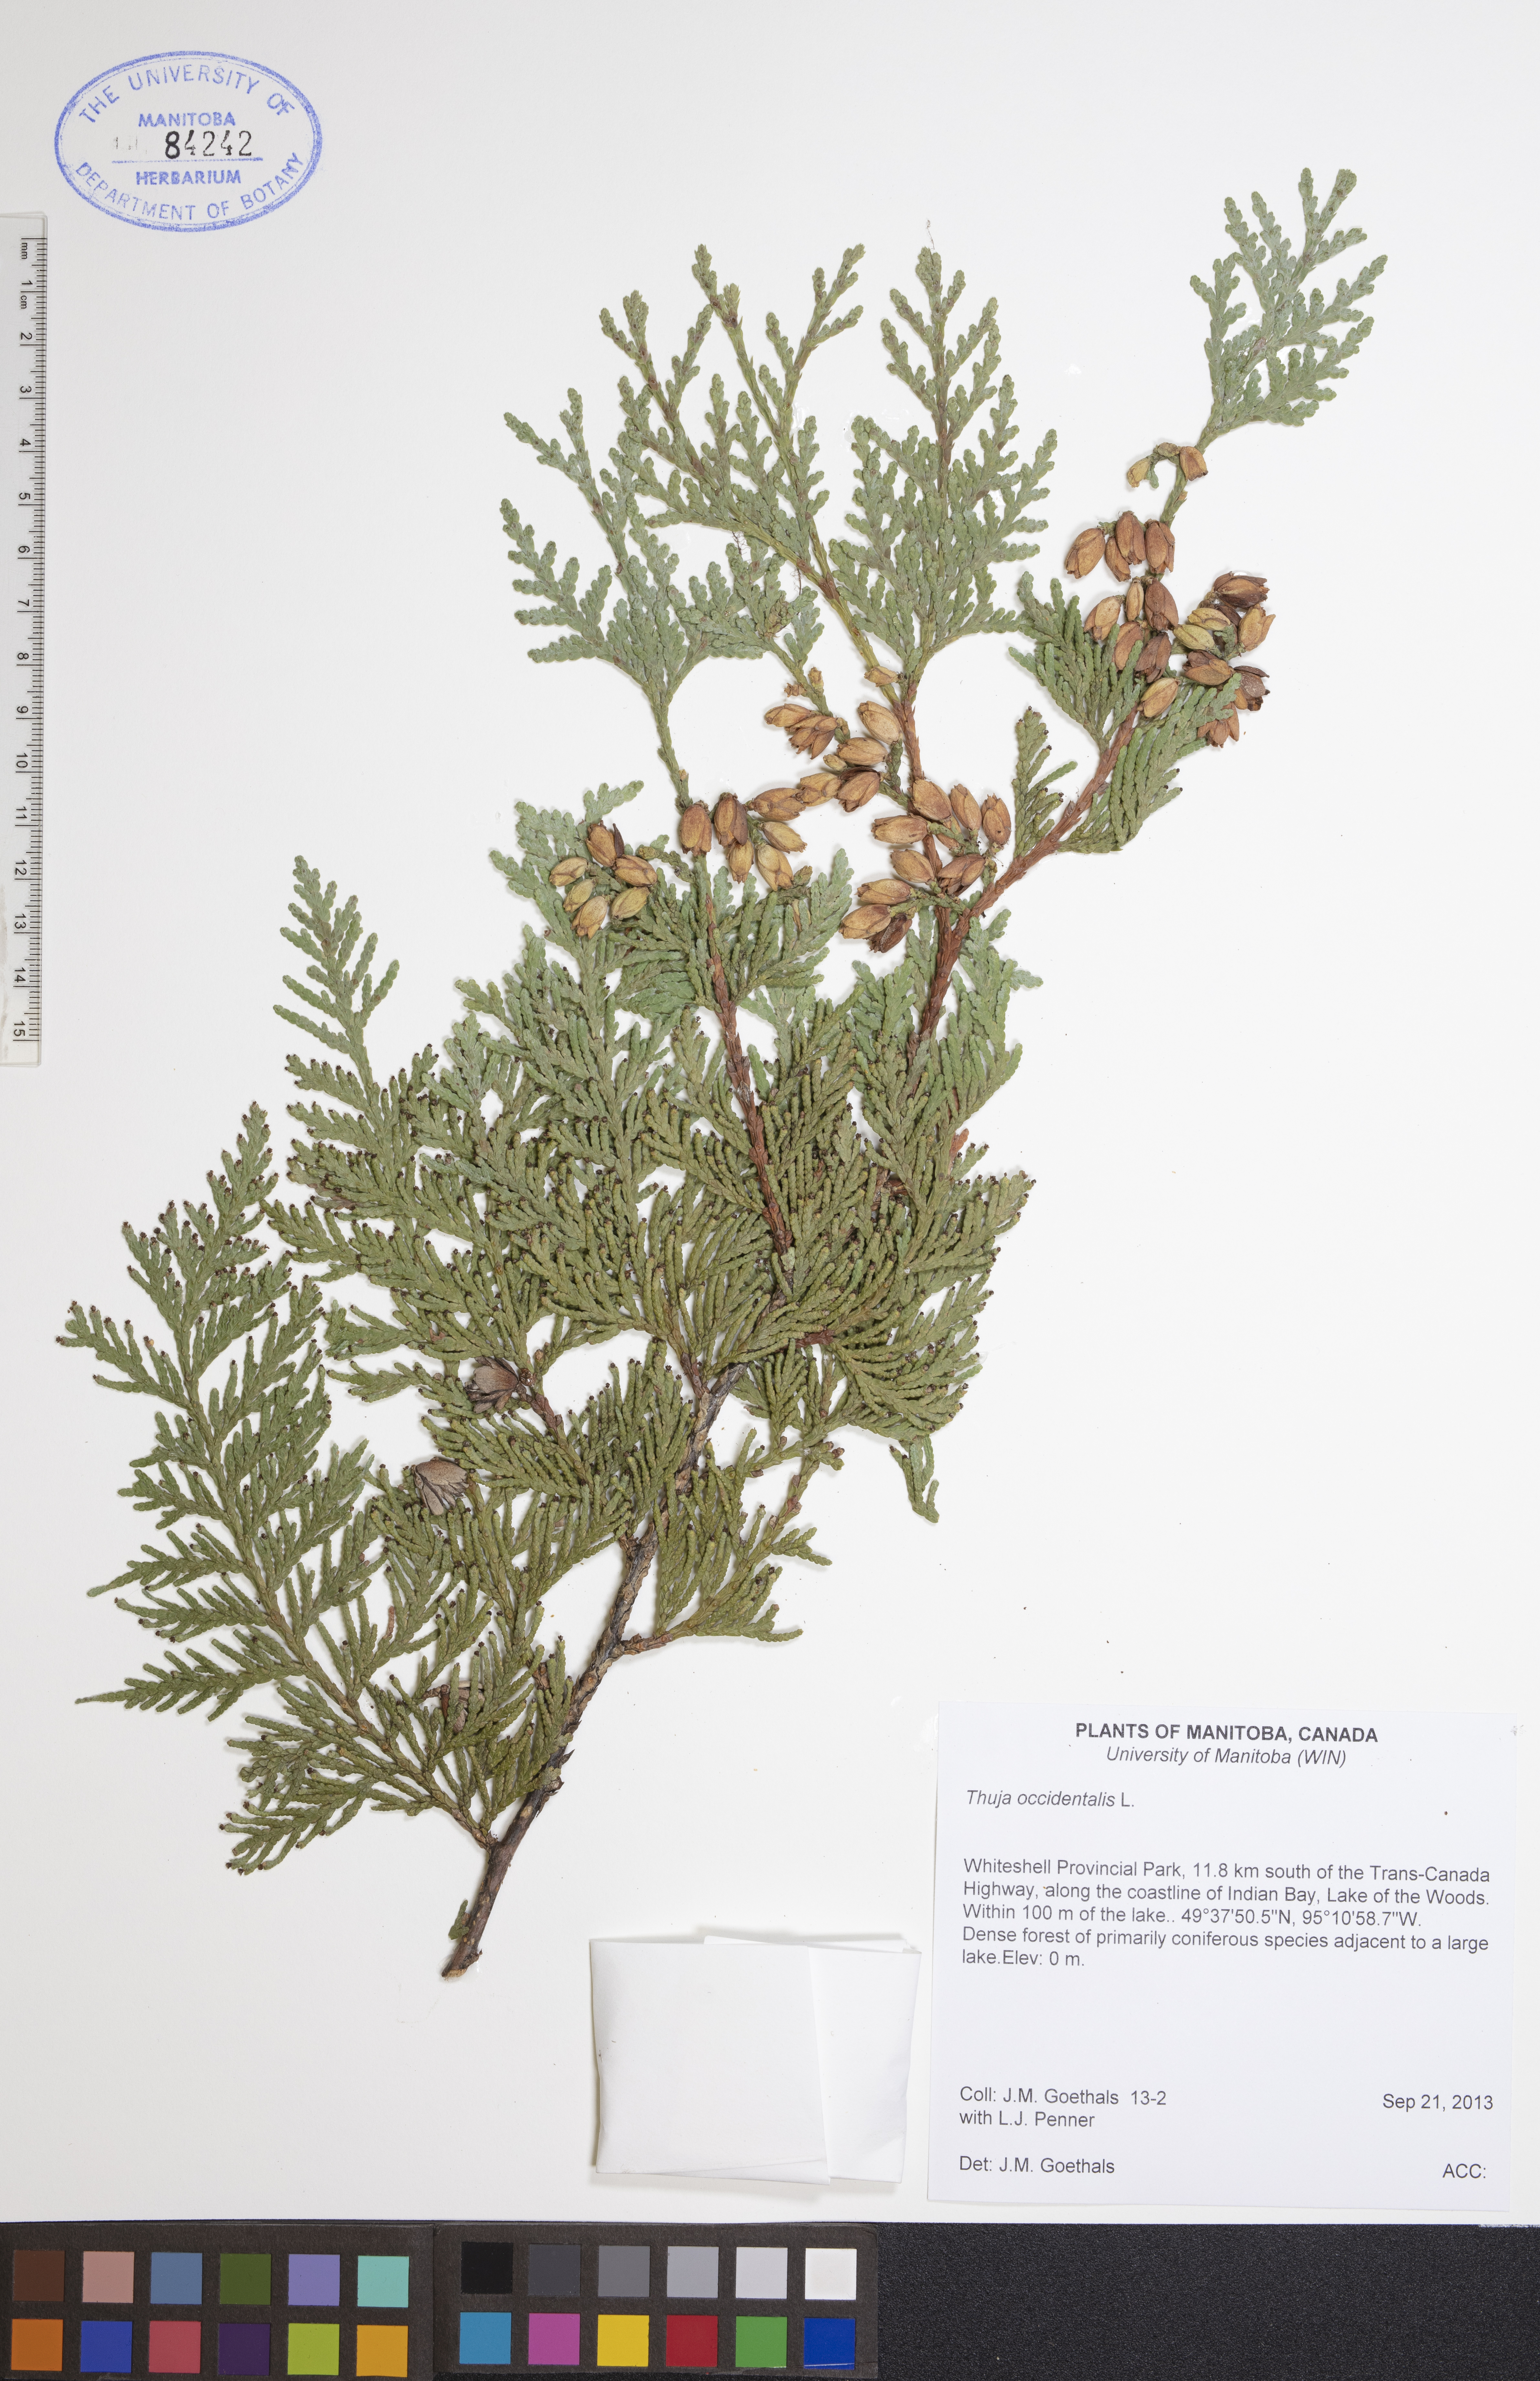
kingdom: Plantae
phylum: Tracheophyta
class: Pinopsida
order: Pinales
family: Cupressaceae
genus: Thuja
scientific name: Thuja occidentalis
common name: Northern white-cedar
